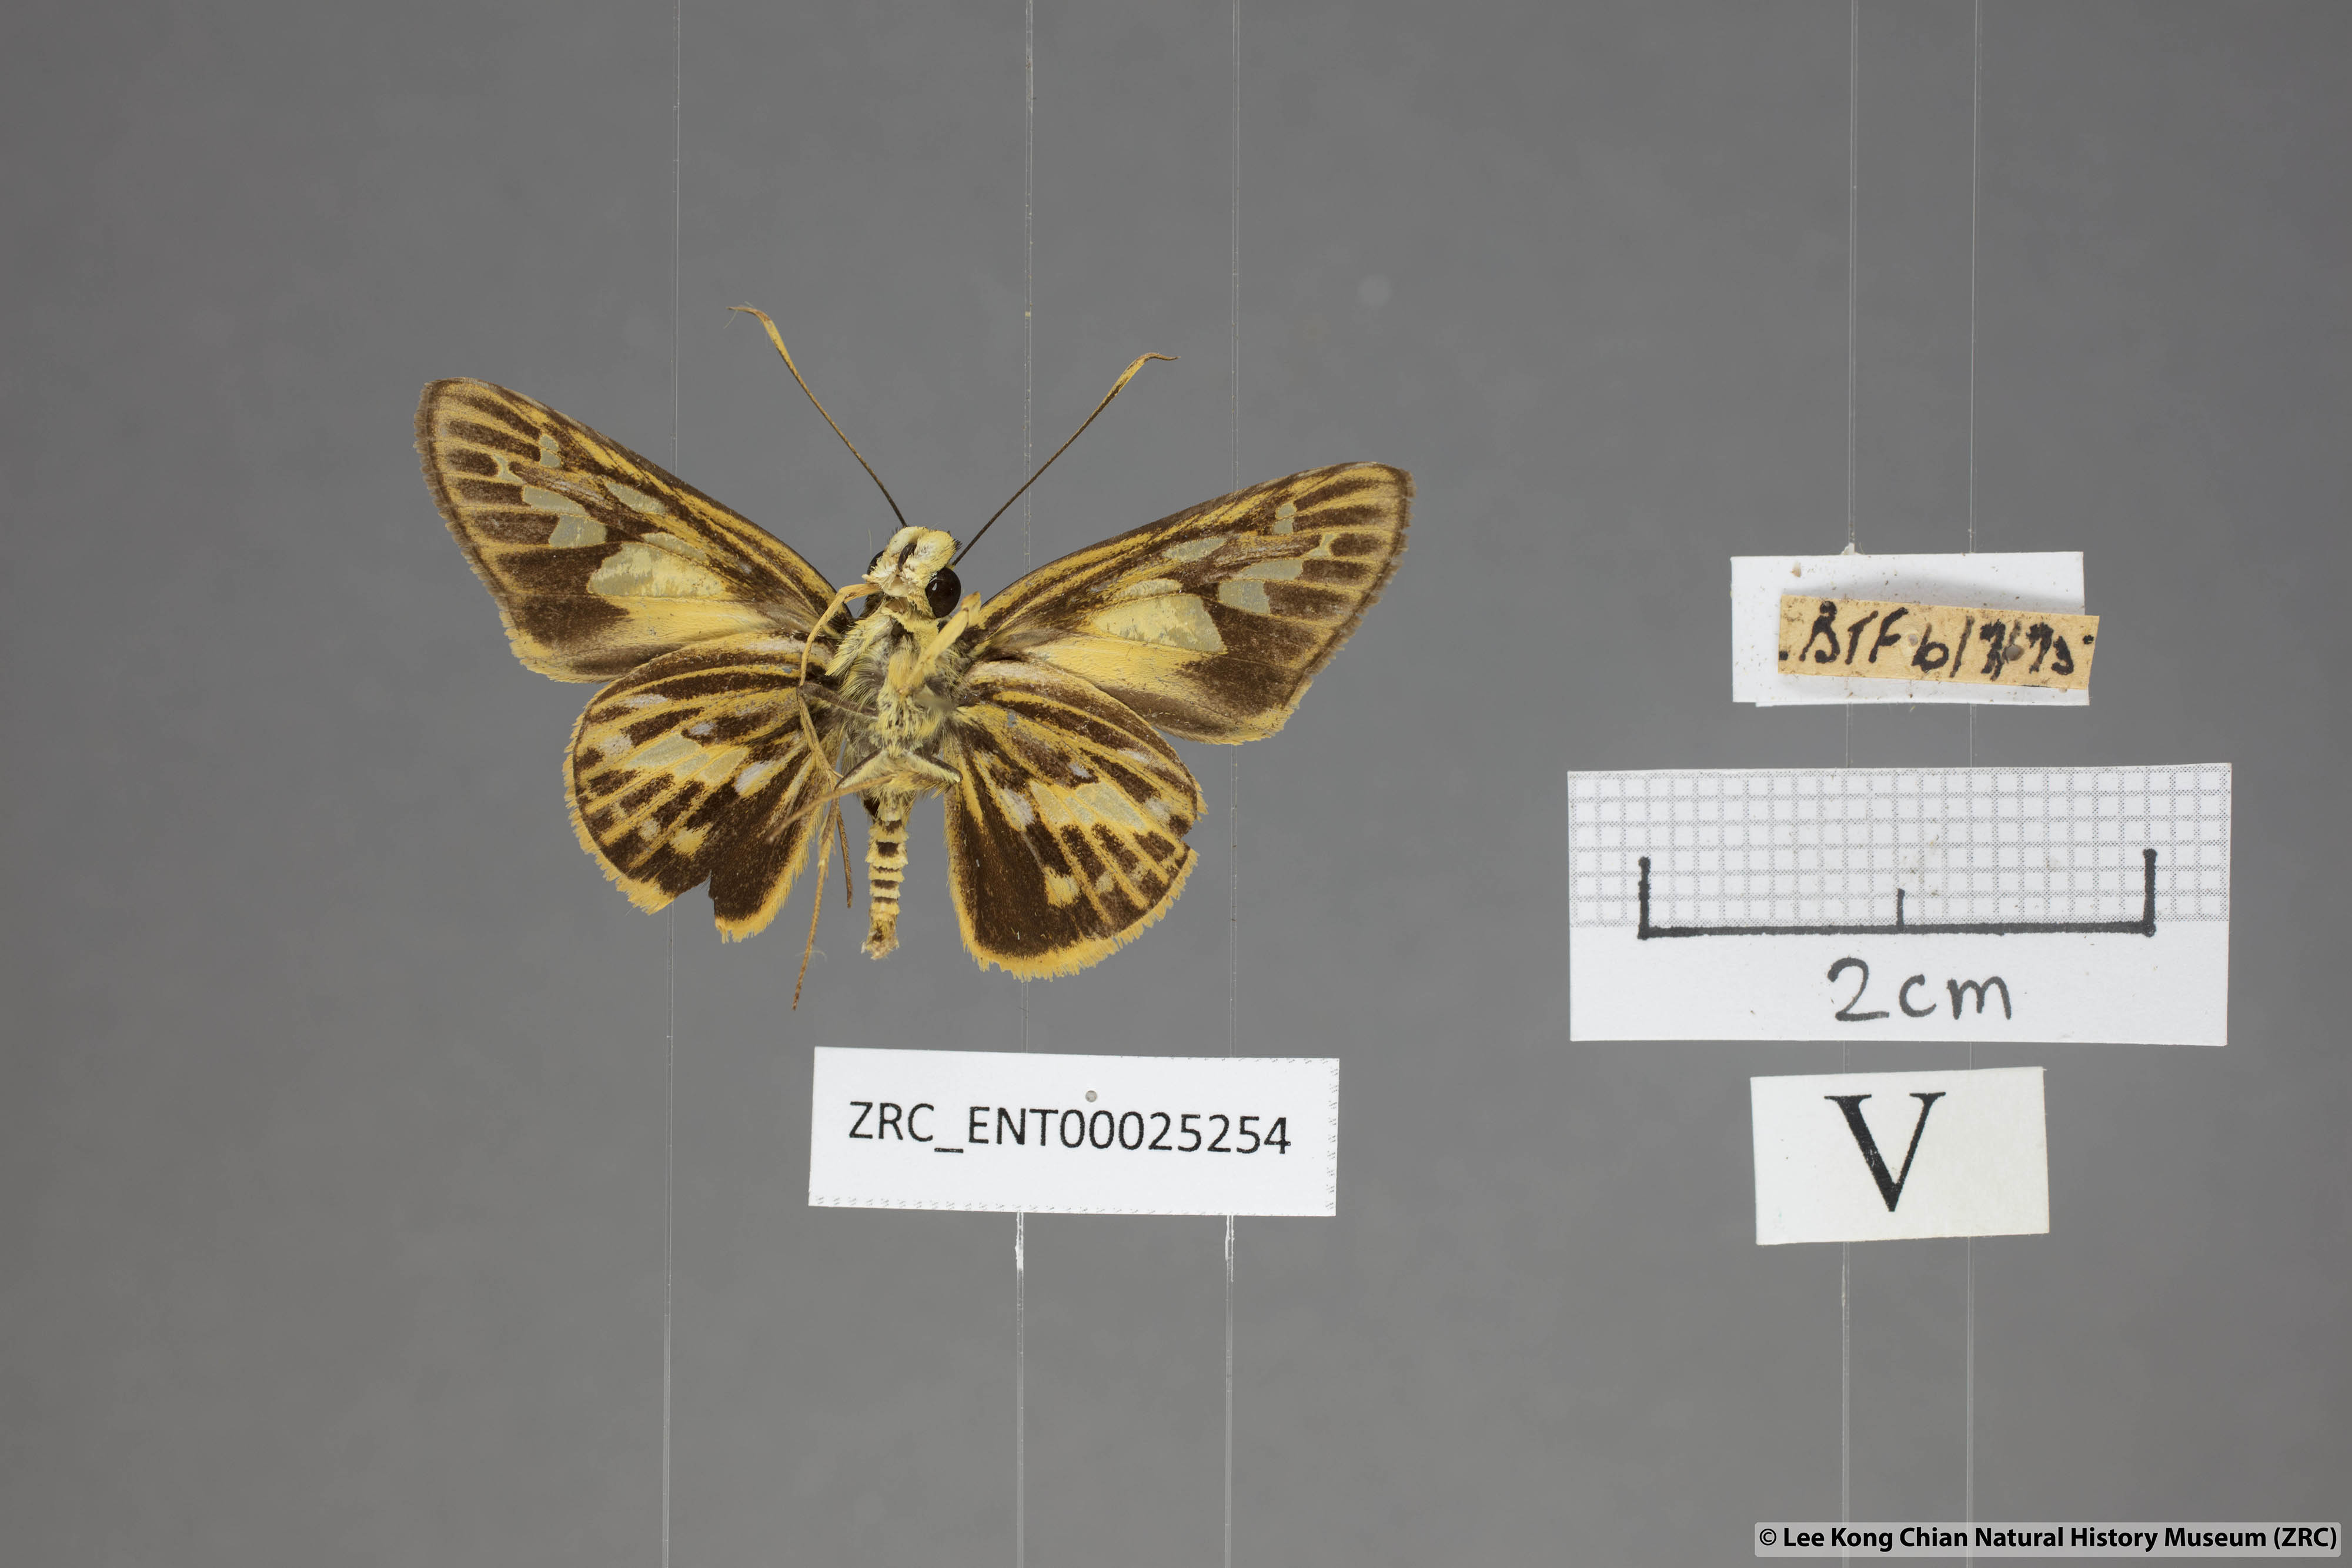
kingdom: Animalia
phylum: Arthropoda
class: Insecta
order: Lepidoptera
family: Hesperiidae
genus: Pyroneura
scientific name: Pyroneura latoia
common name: Yellow vein lancer
